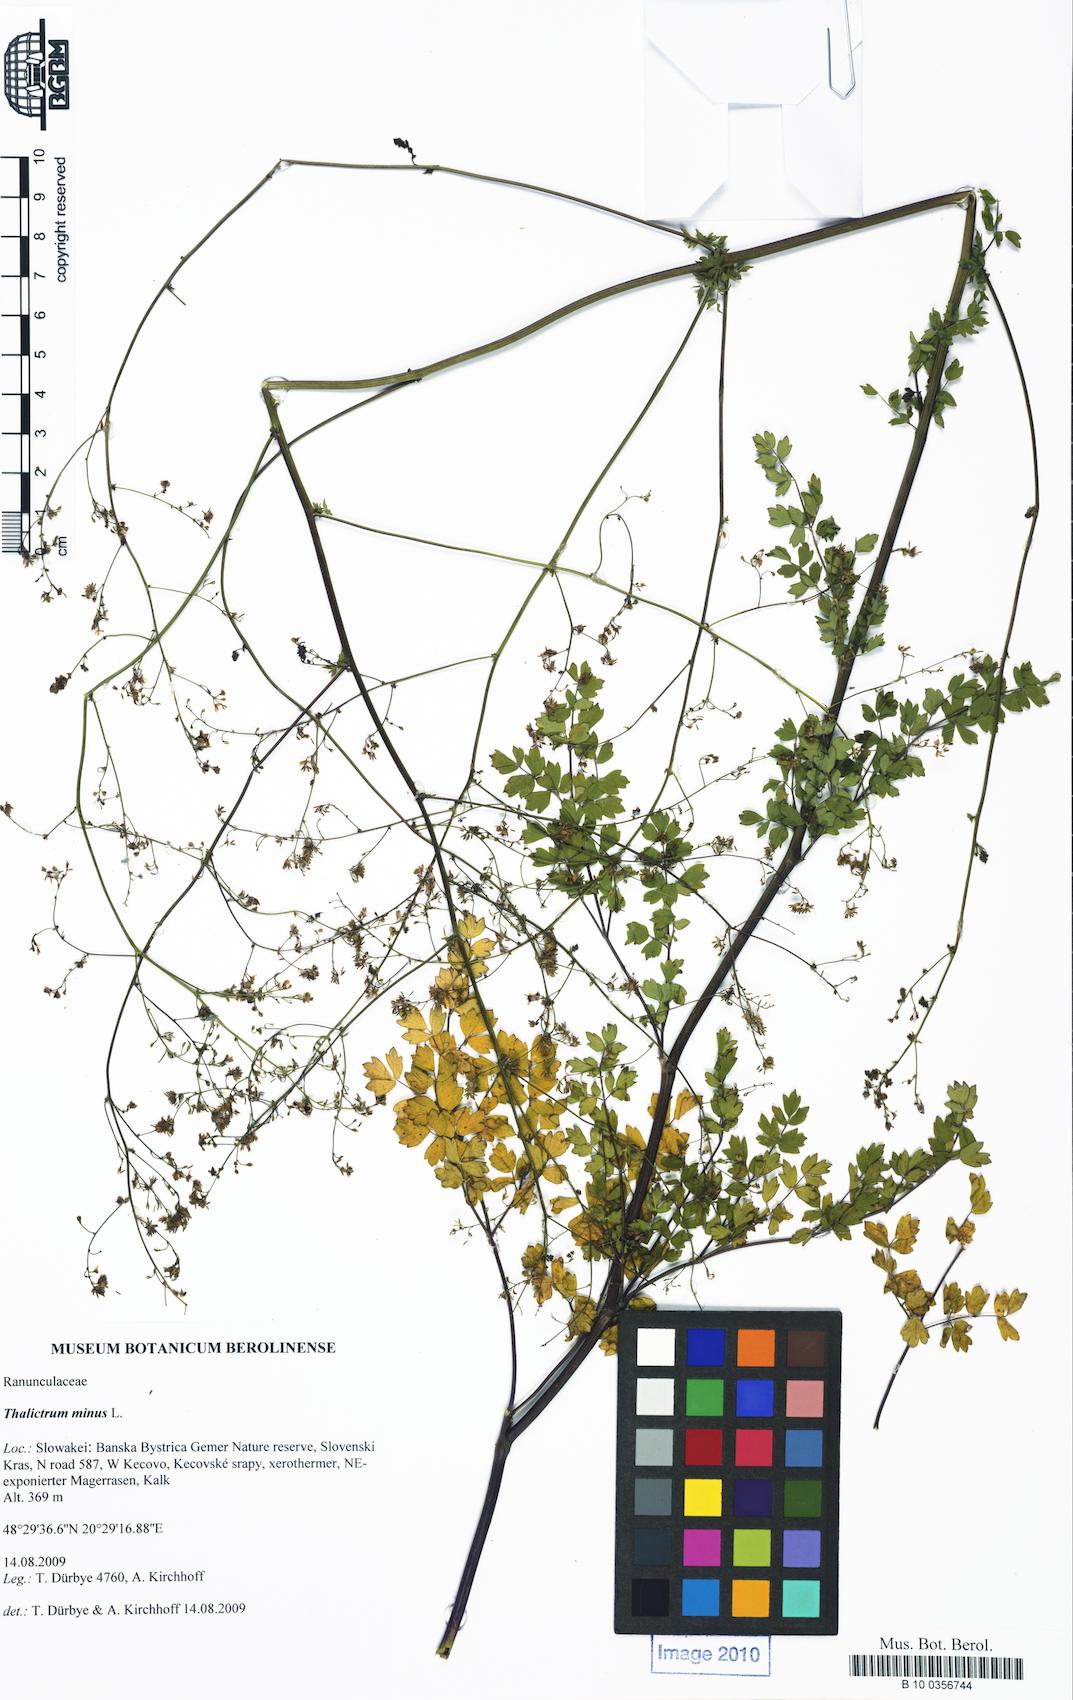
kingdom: Plantae
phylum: Tracheophyta
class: Magnoliopsida
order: Ranunculales
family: Ranunculaceae
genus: Thalictrum
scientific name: Thalictrum minus
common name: Lesser meadow-rue
